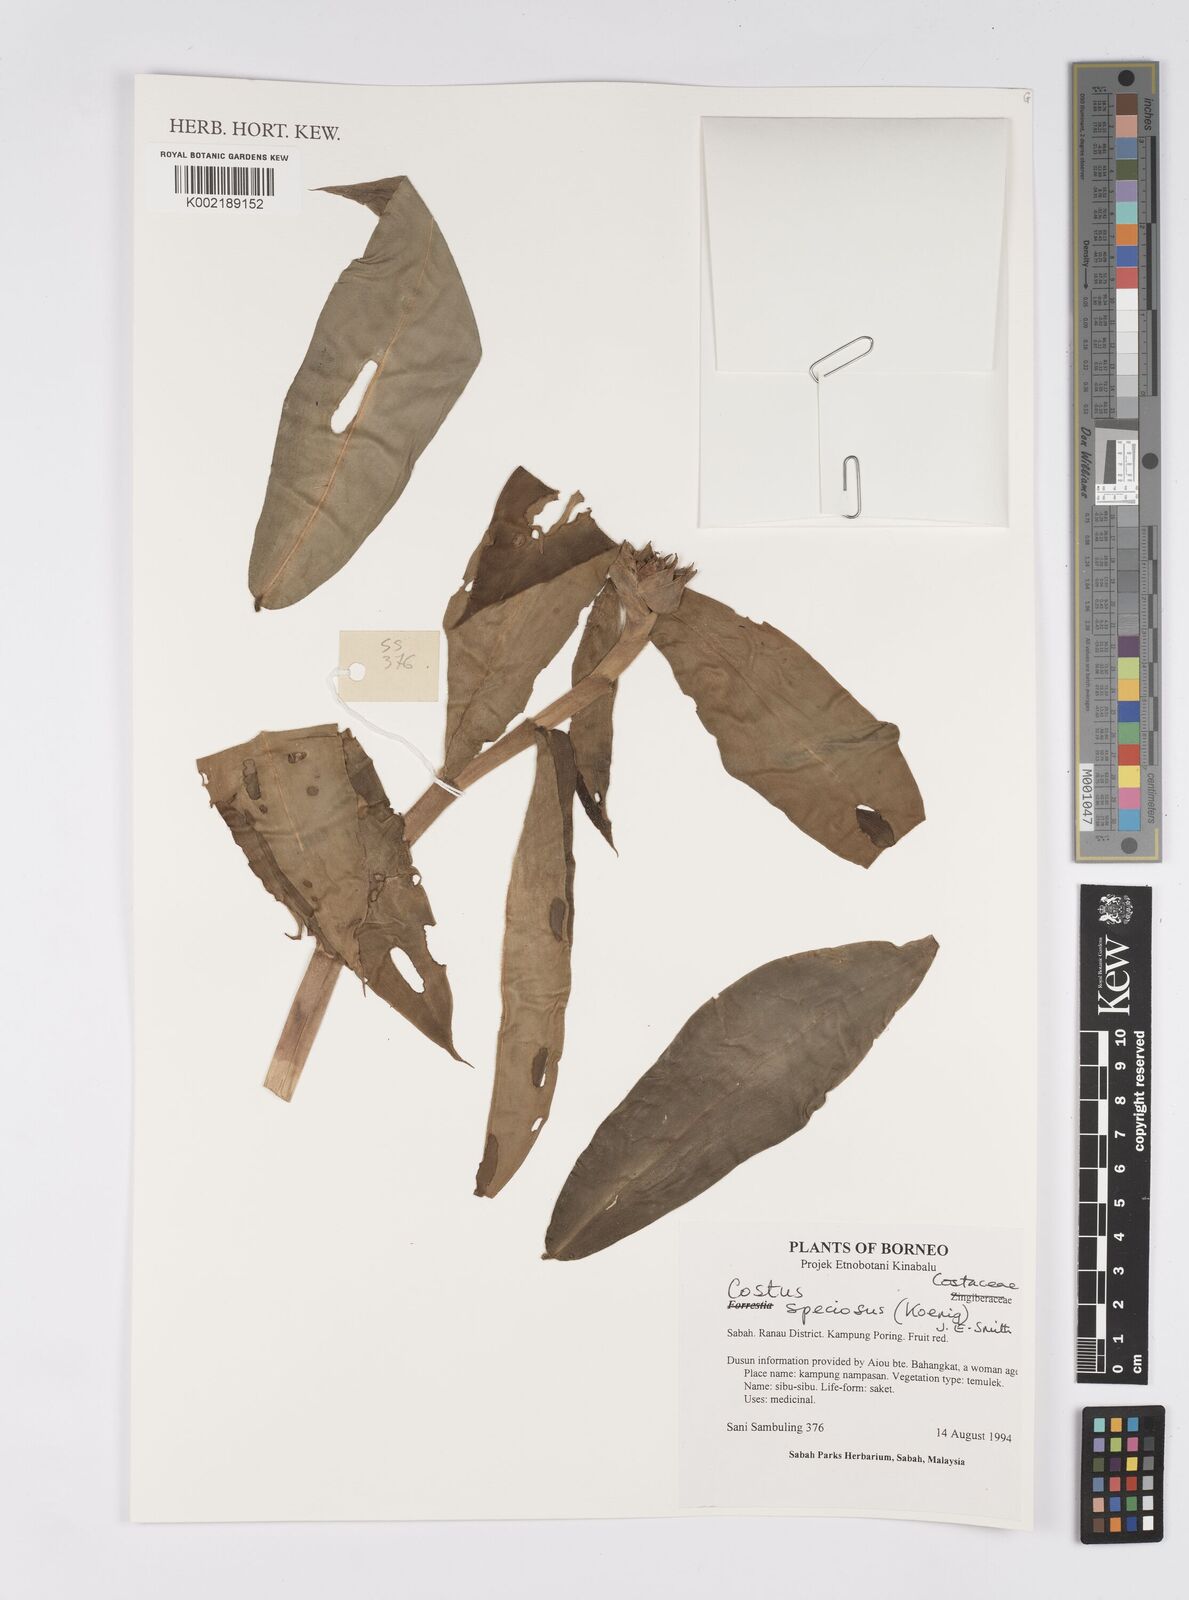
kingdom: Plantae
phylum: Tracheophyta
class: Liliopsida
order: Zingiberales
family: Costaceae
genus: Hellenia
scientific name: Hellenia speciosa
